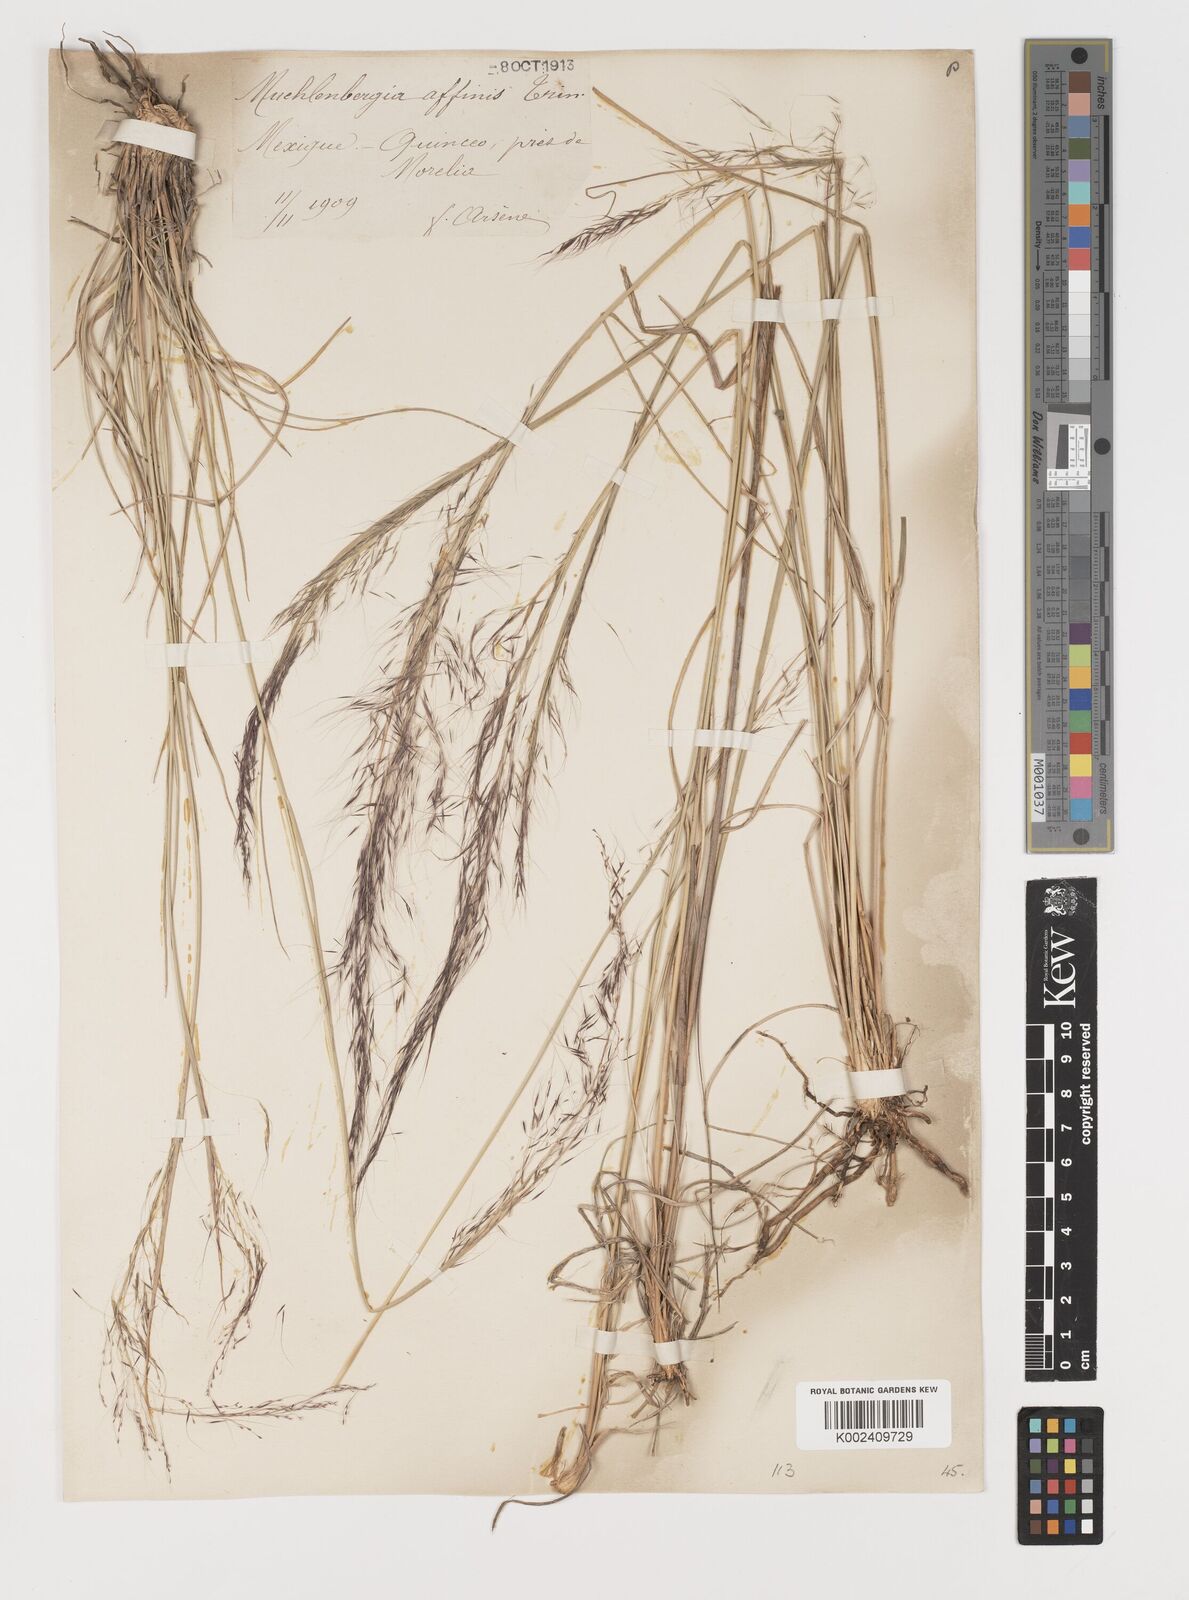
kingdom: Plantae
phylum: Tracheophyta
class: Liliopsida
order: Poales
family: Poaceae
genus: Muhlenbergia
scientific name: Muhlenbergia rigida
